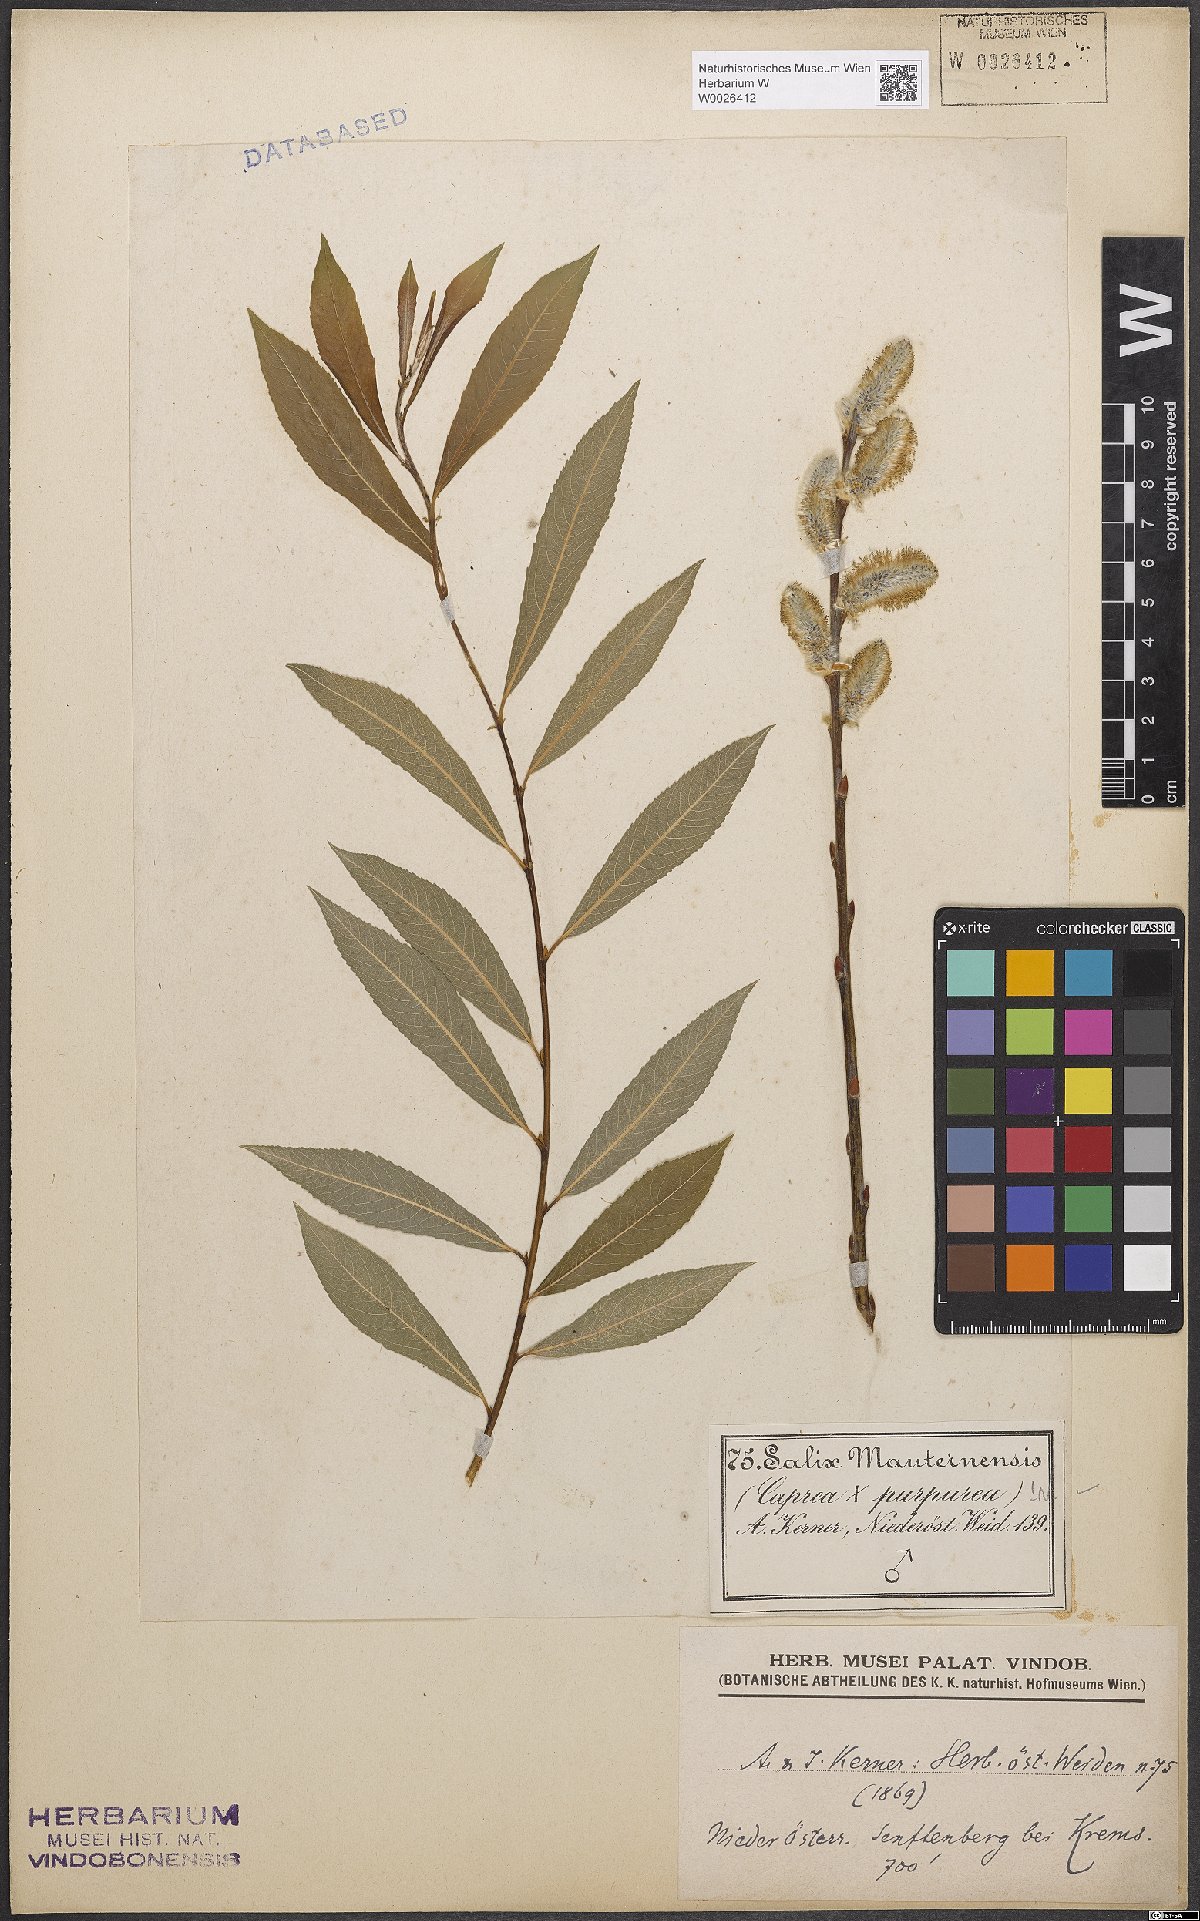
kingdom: Plantae
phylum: Tracheophyta
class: Magnoliopsida
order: Malpighiales
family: Salicaceae
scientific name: Salicaceae
